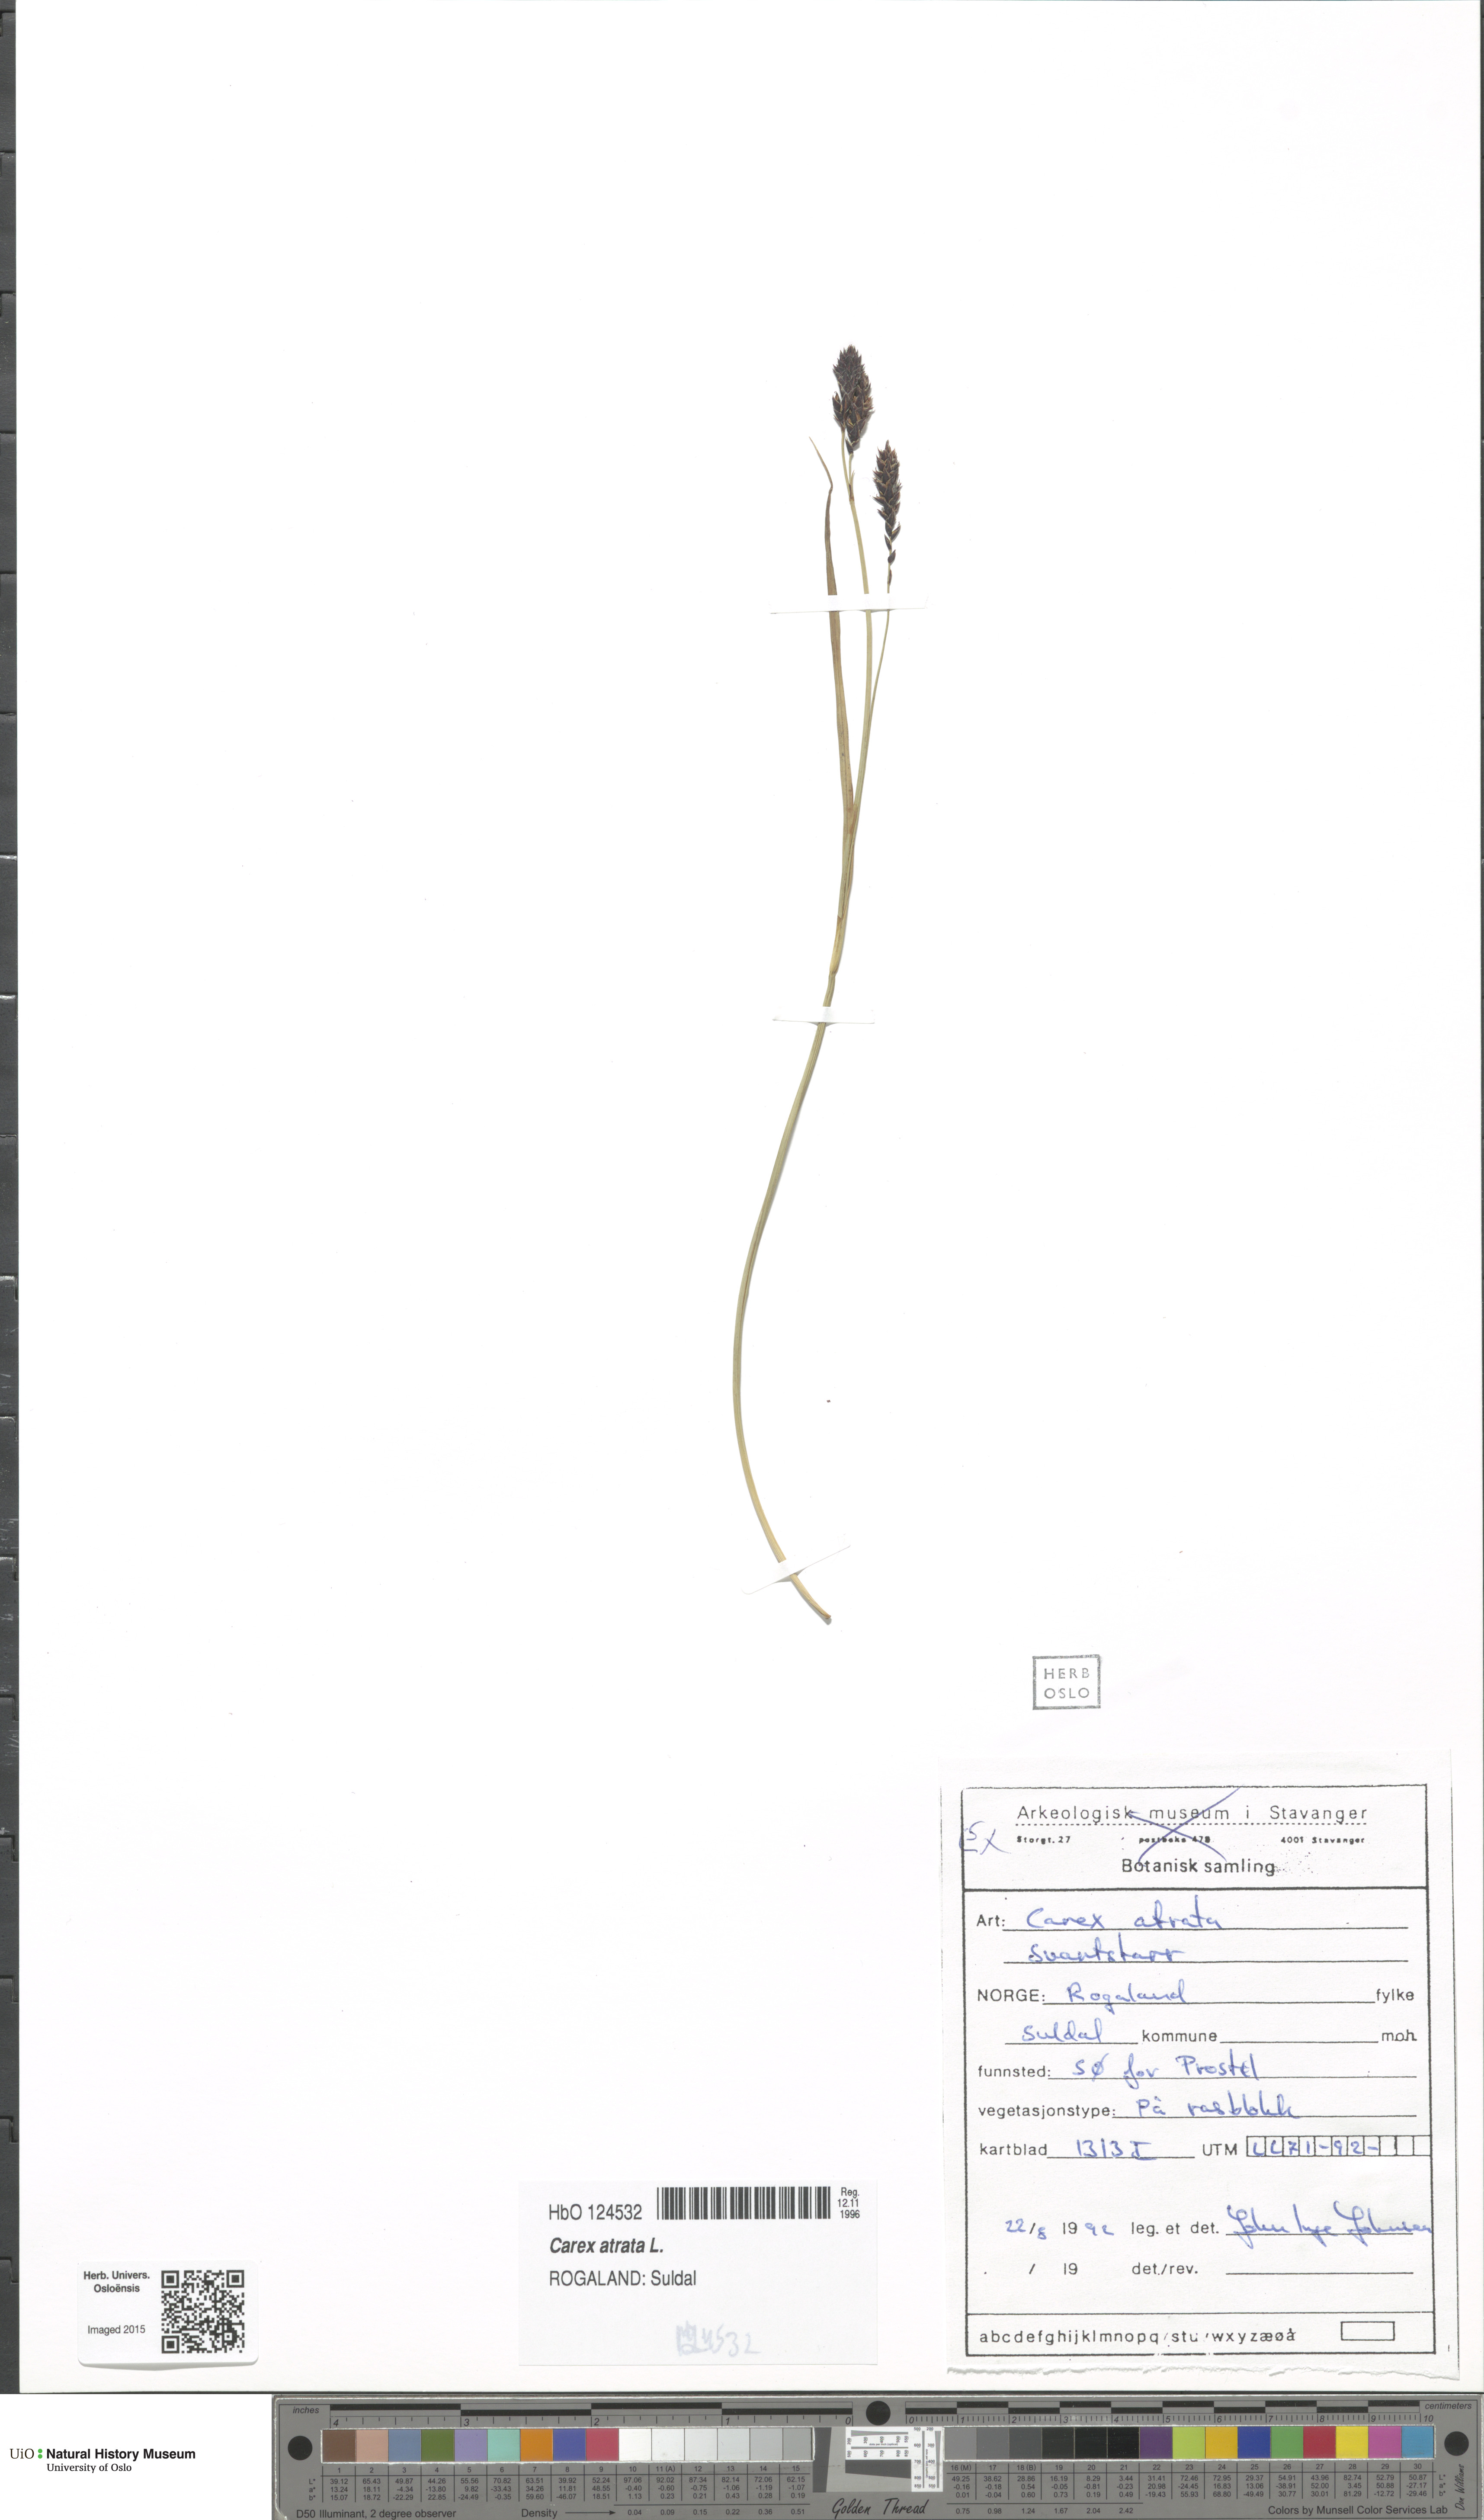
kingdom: Plantae
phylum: Tracheophyta
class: Liliopsida
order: Poales
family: Cyperaceae
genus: Carex
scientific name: Carex atrata
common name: Black alpine sedge
